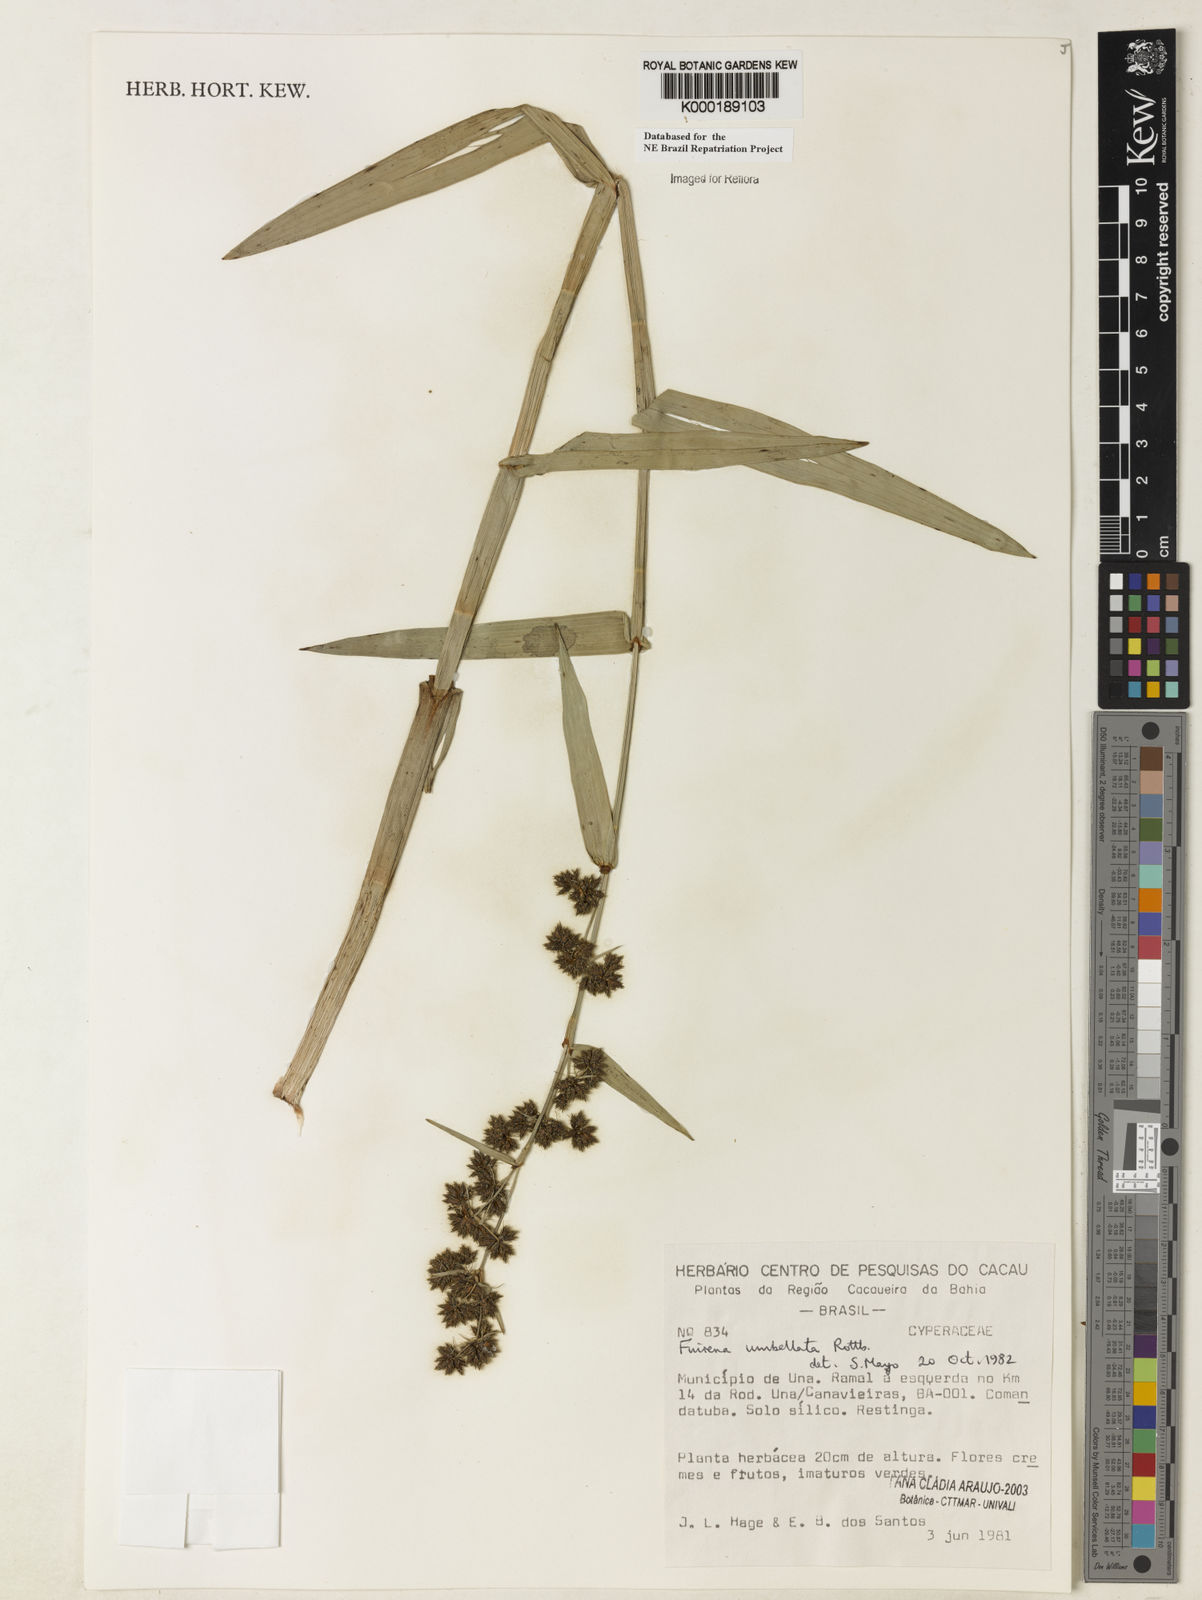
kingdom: Plantae
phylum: Tracheophyta
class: Liliopsida
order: Poales
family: Cyperaceae
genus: Fuirena
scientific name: Fuirena umbellata
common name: Yefen
